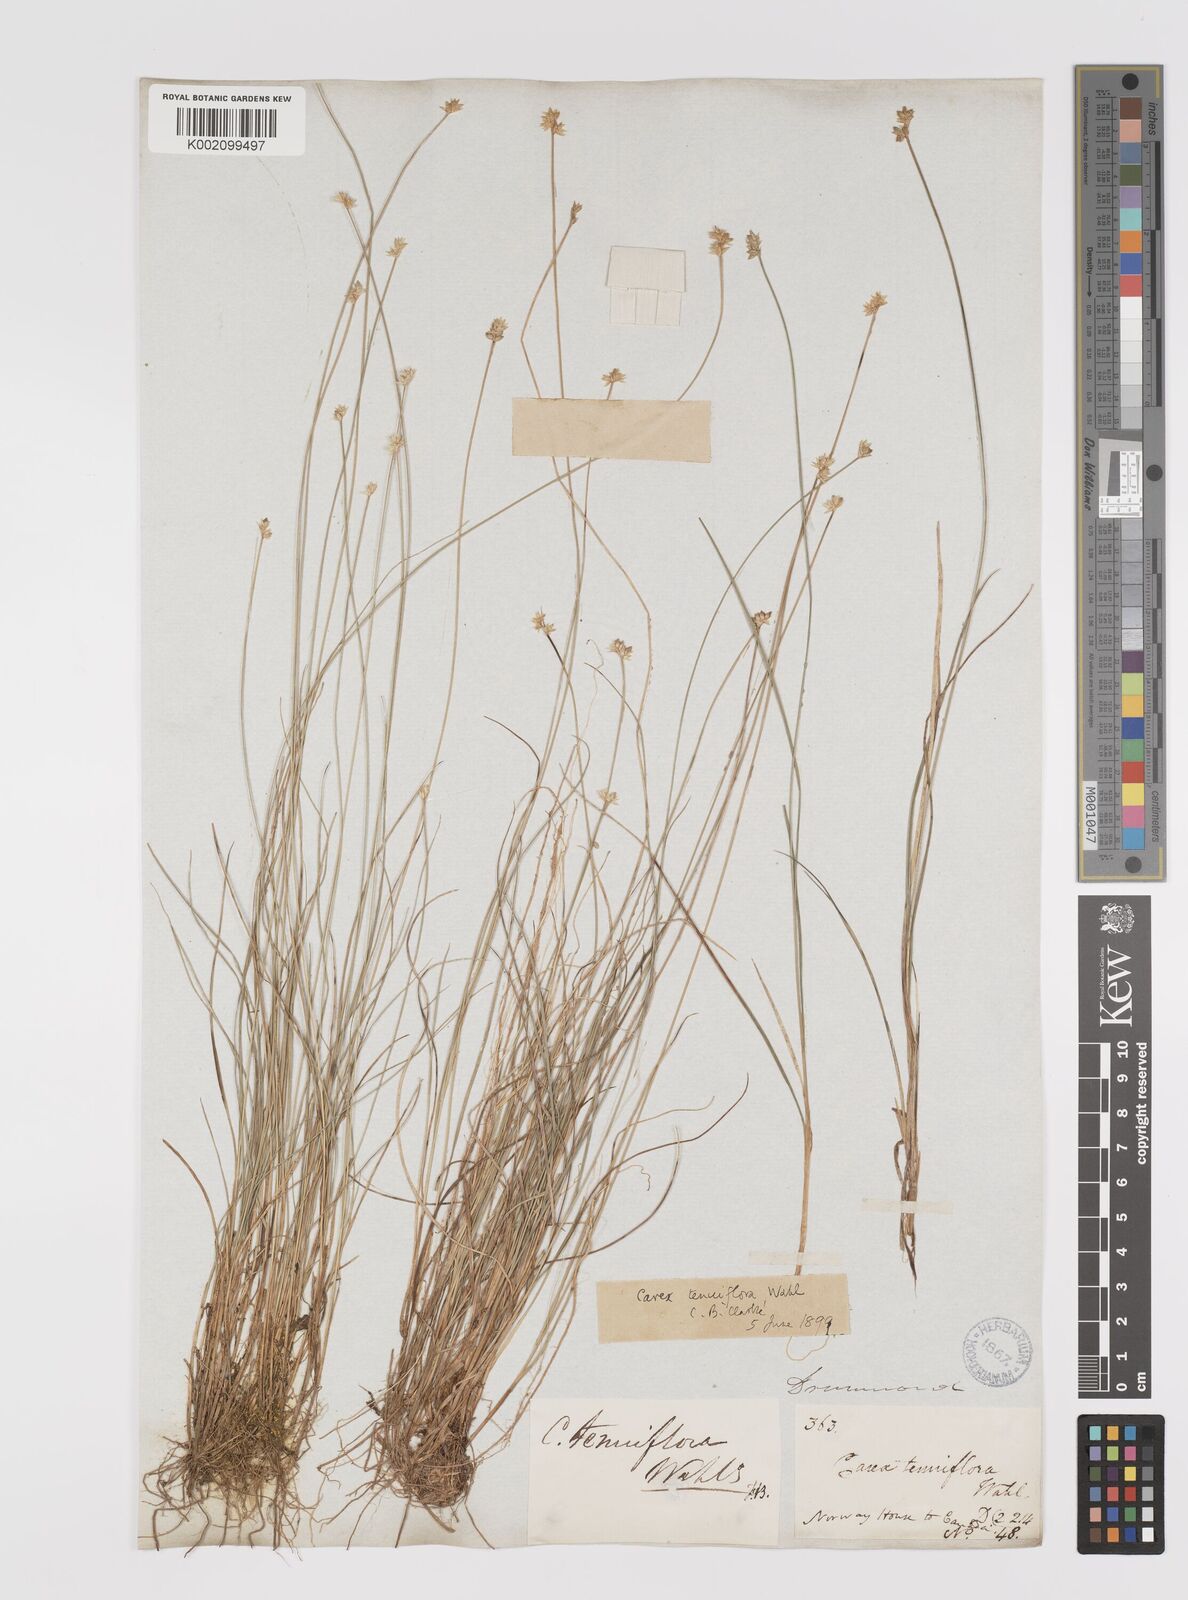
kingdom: Plantae
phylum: Tracheophyta
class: Liliopsida
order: Poales
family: Cyperaceae
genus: Carex
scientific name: Carex tenuiflora
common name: Sparse-flowered sedge
